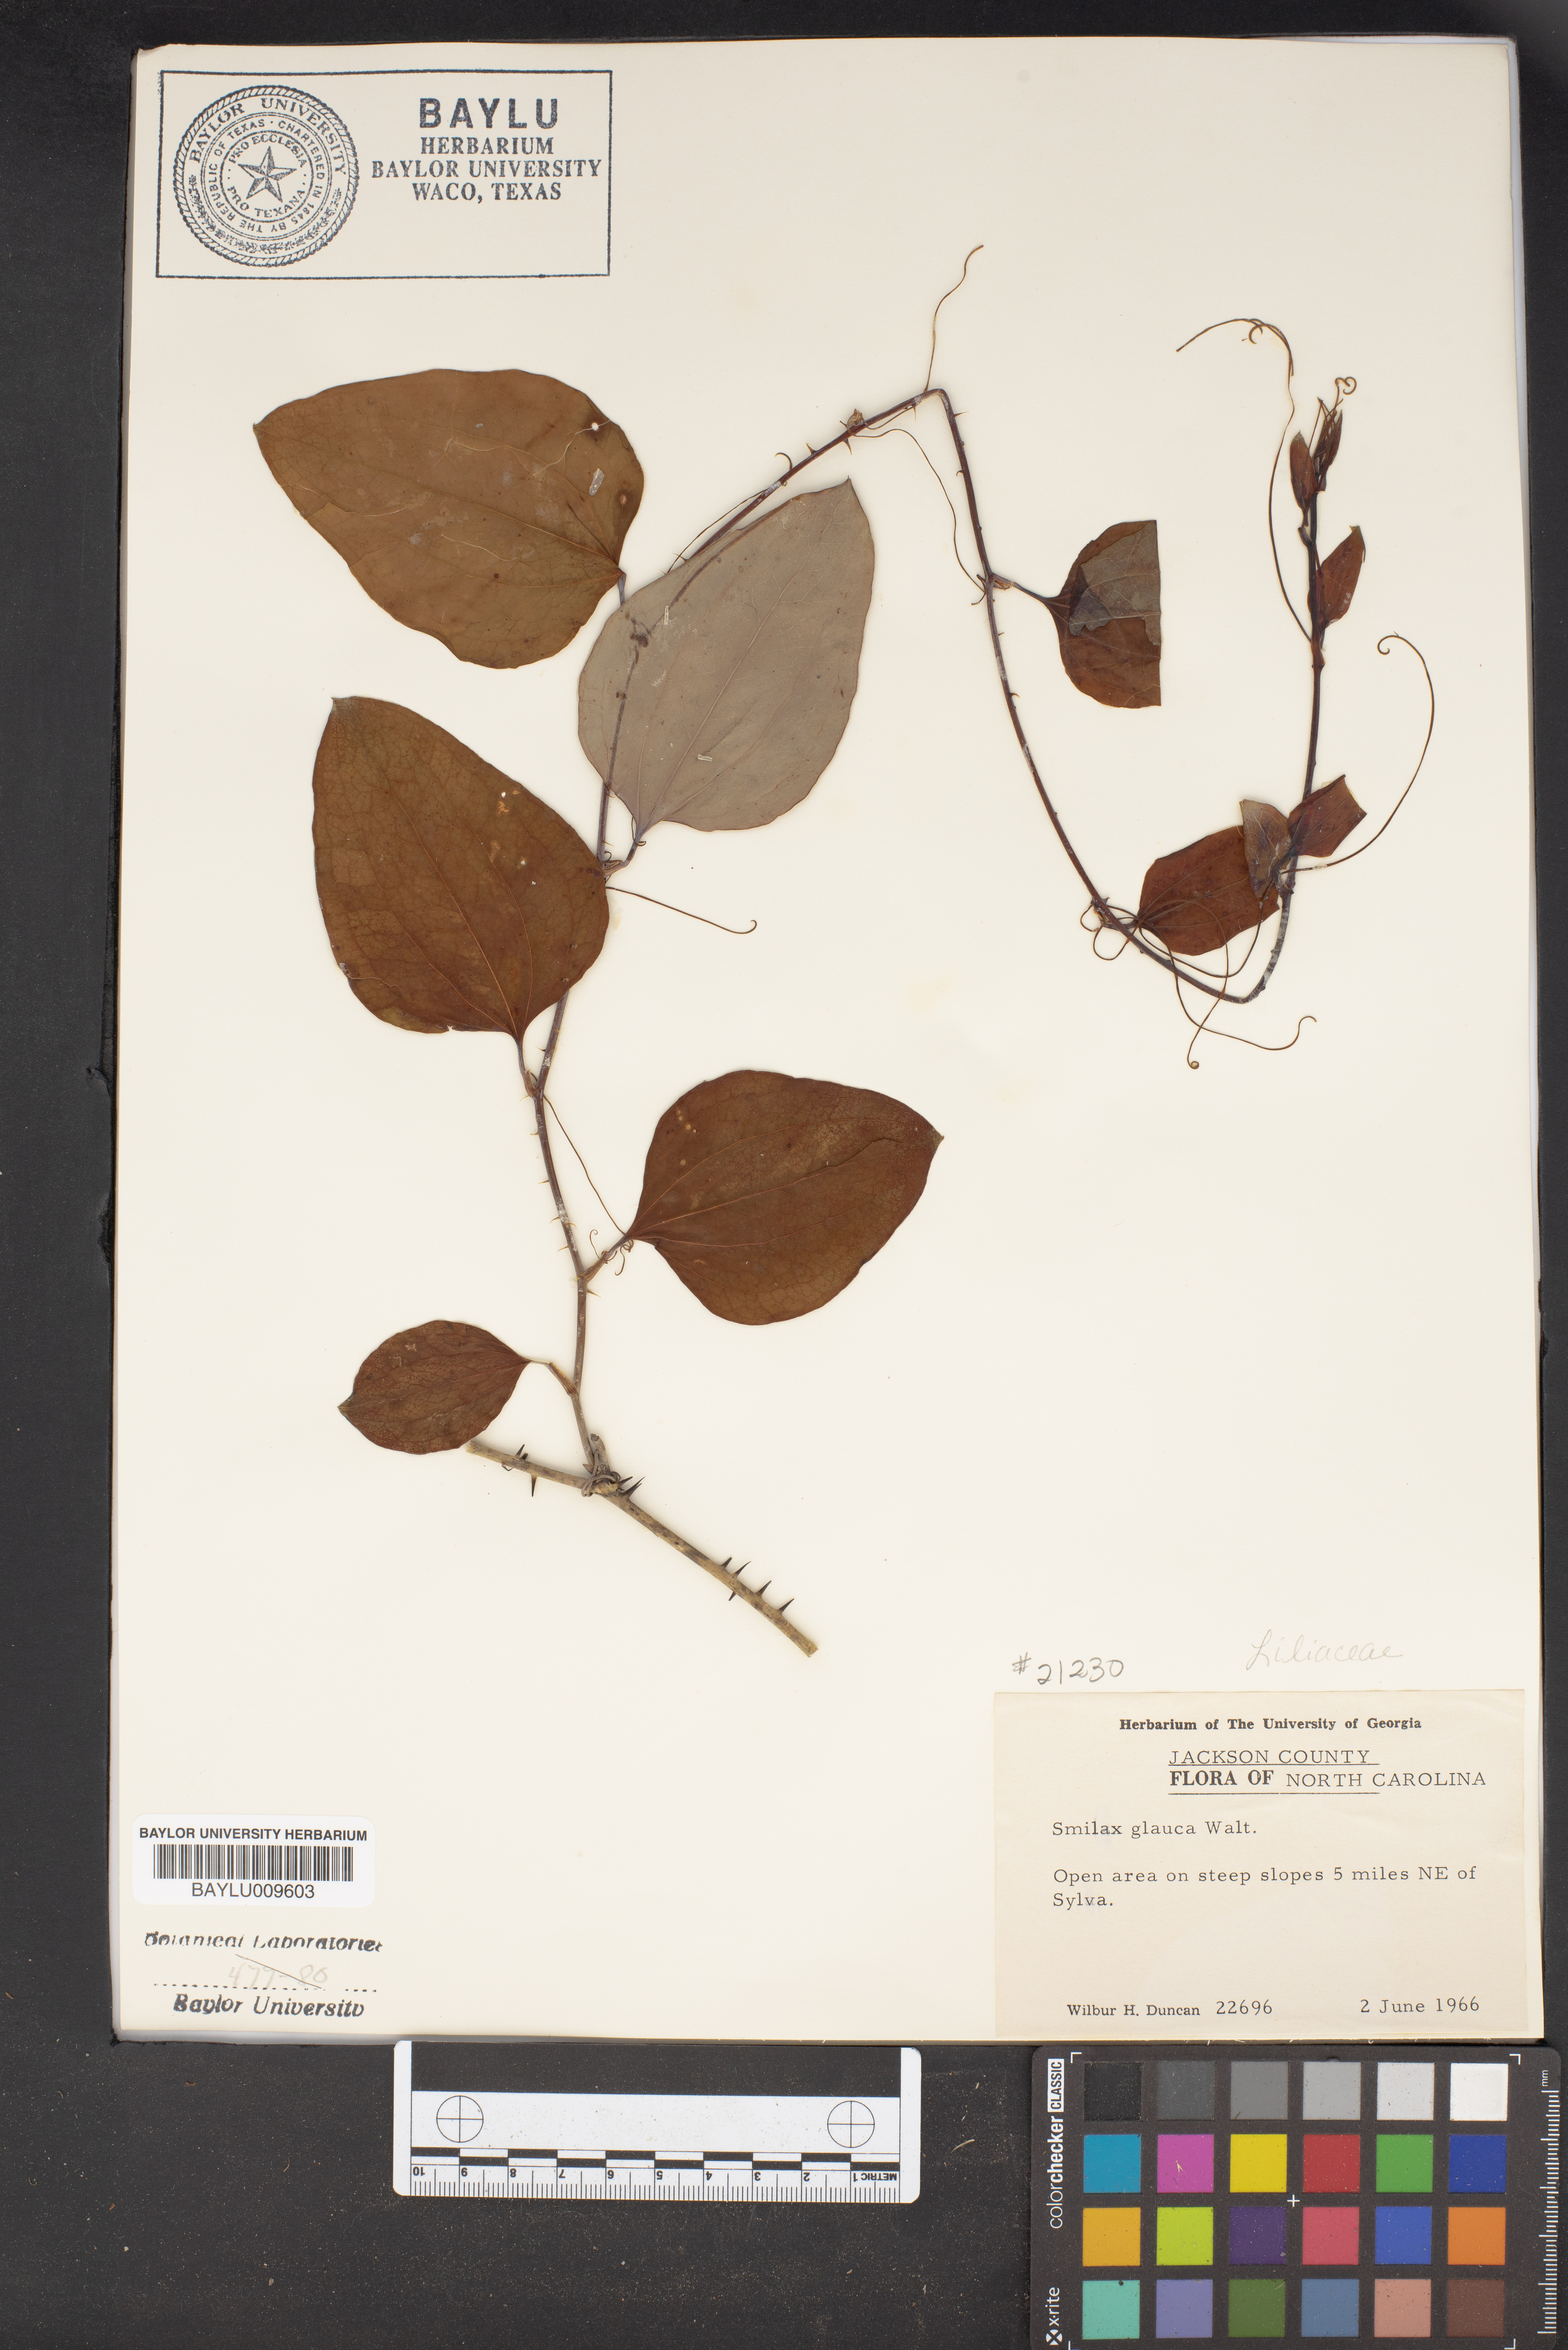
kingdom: Plantae
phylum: Tracheophyta
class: Liliopsida
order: Liliales
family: Smilacaceae
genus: Smilax
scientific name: Smilax glauca
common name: Cat greenbrier
